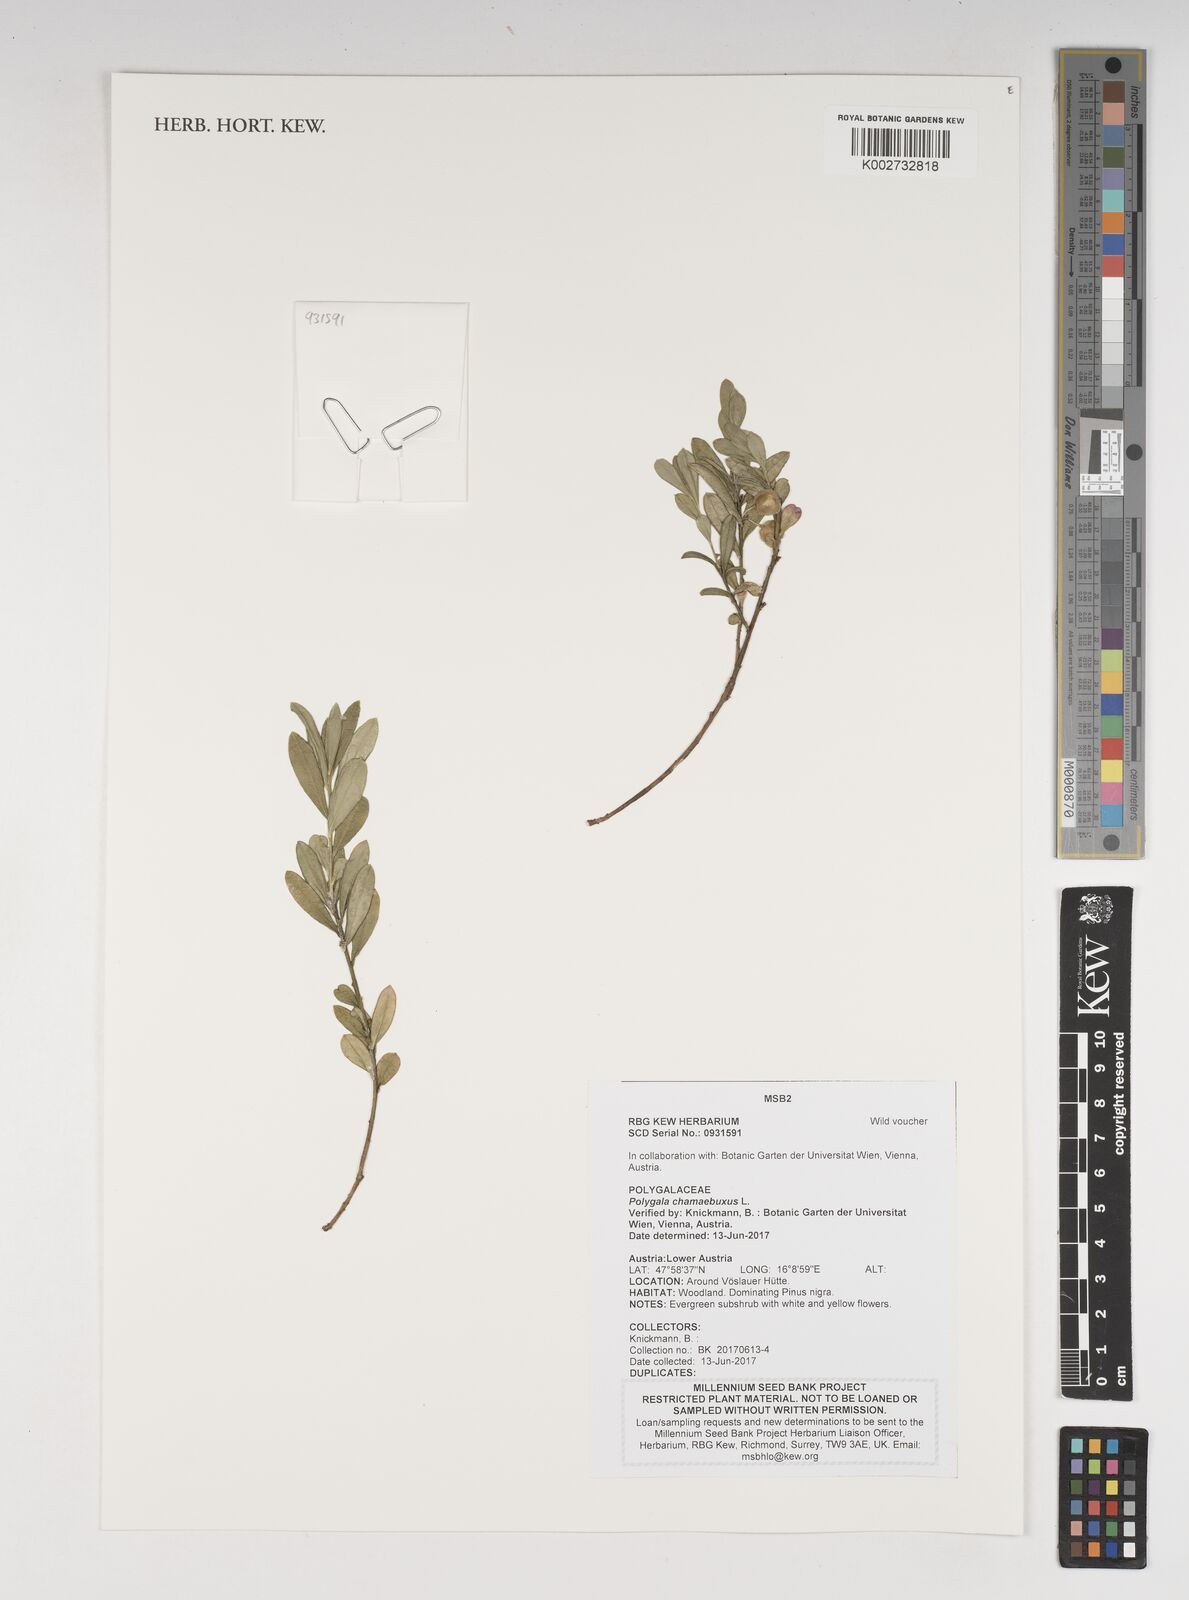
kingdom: Plantae
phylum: Tracheophyta
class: Magnoliopsida
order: Fabales
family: Polygalaceae
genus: Polygaloides
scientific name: Polygaloides chamaebuxus
